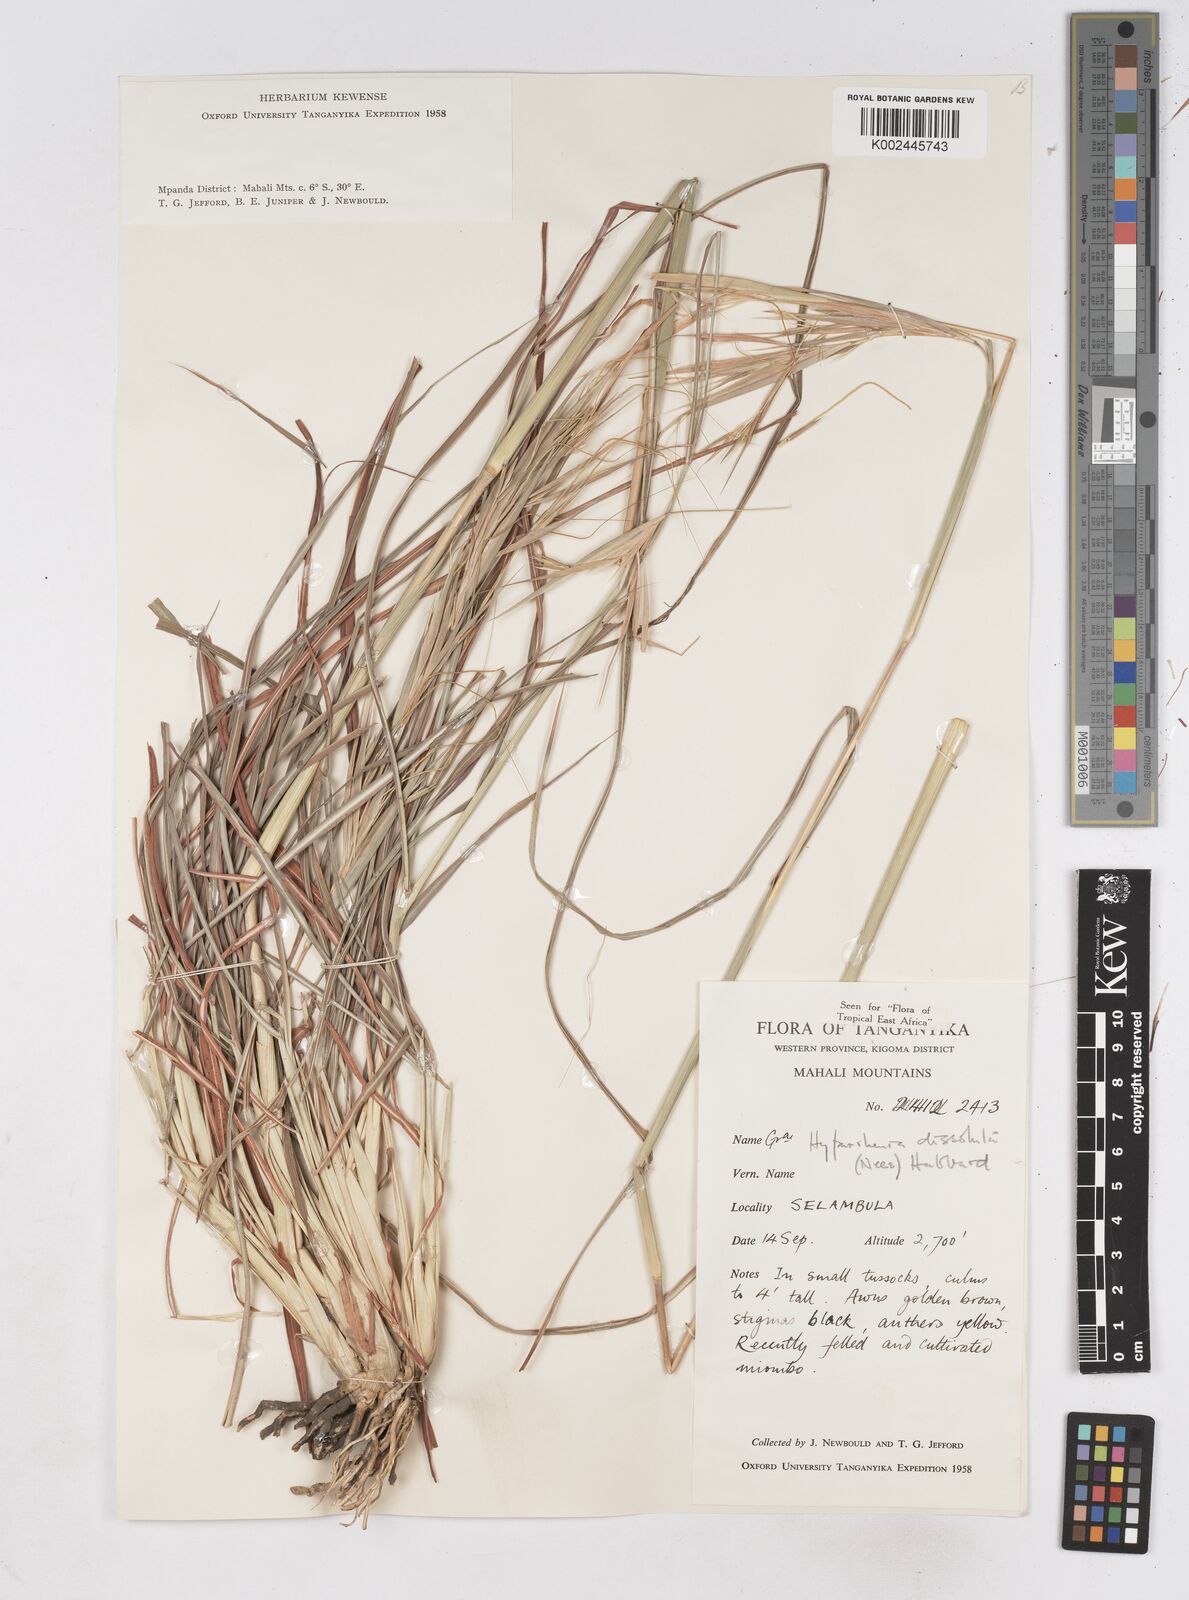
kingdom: Plantae
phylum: Tracheophyta
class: Liliopsida
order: Poales
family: Poaceae
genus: Hyperthelia
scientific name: Hyperthelia dissoluta
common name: Yellow thatching grass
